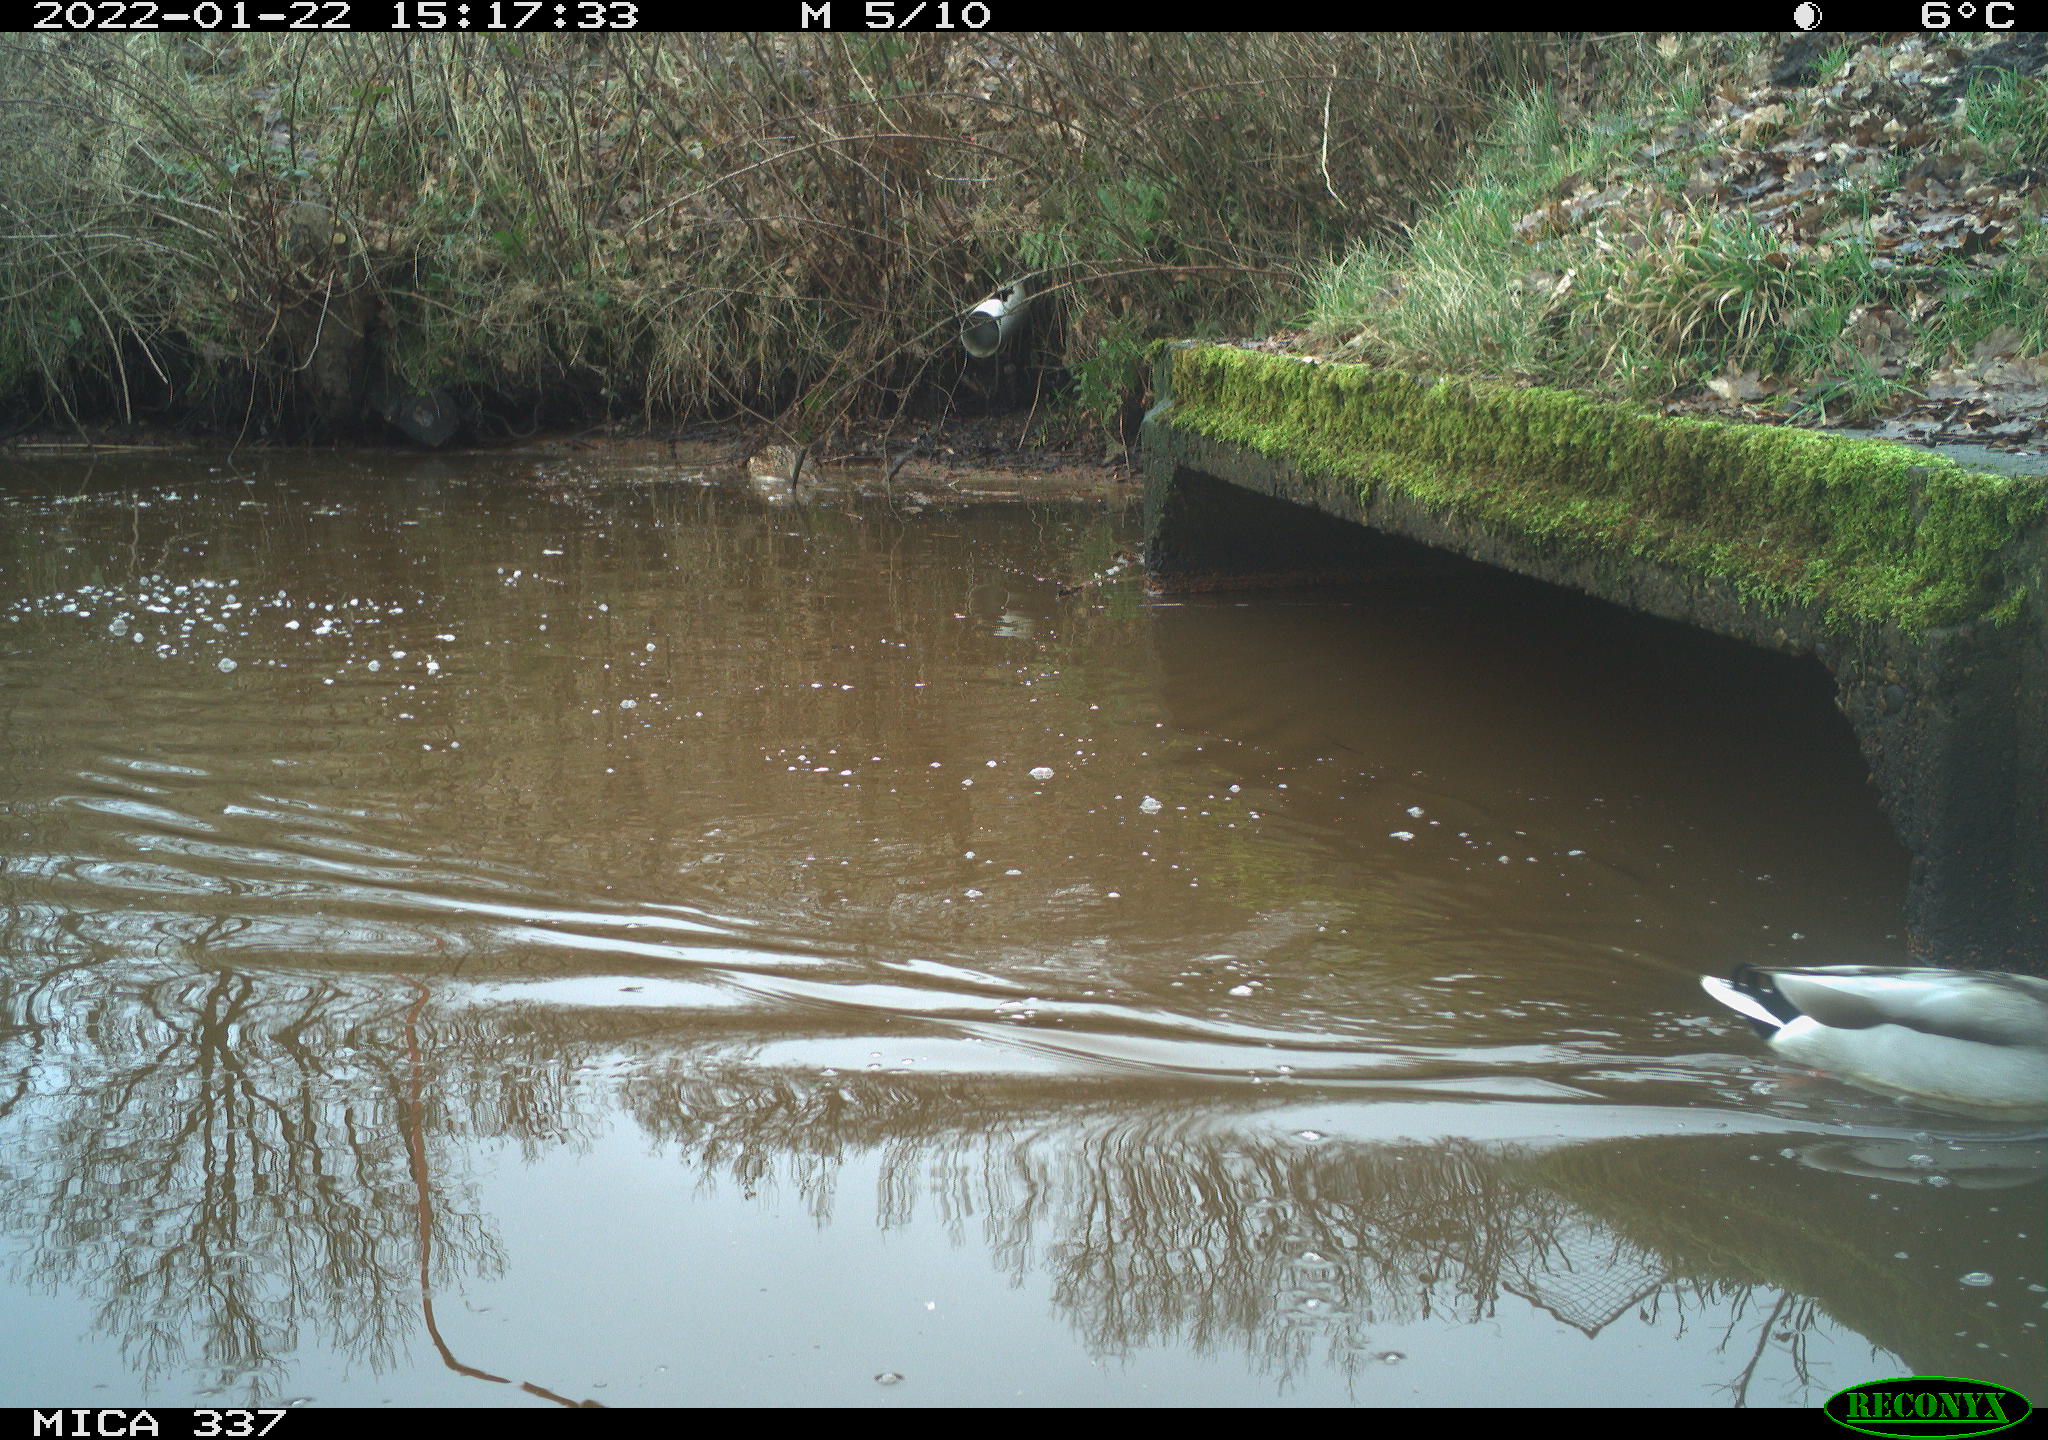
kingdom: Animalia
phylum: Chordata
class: Aves
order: Anseriformes
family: Anatidae
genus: Anas
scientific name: Anas platyrhynchos
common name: Mallard
